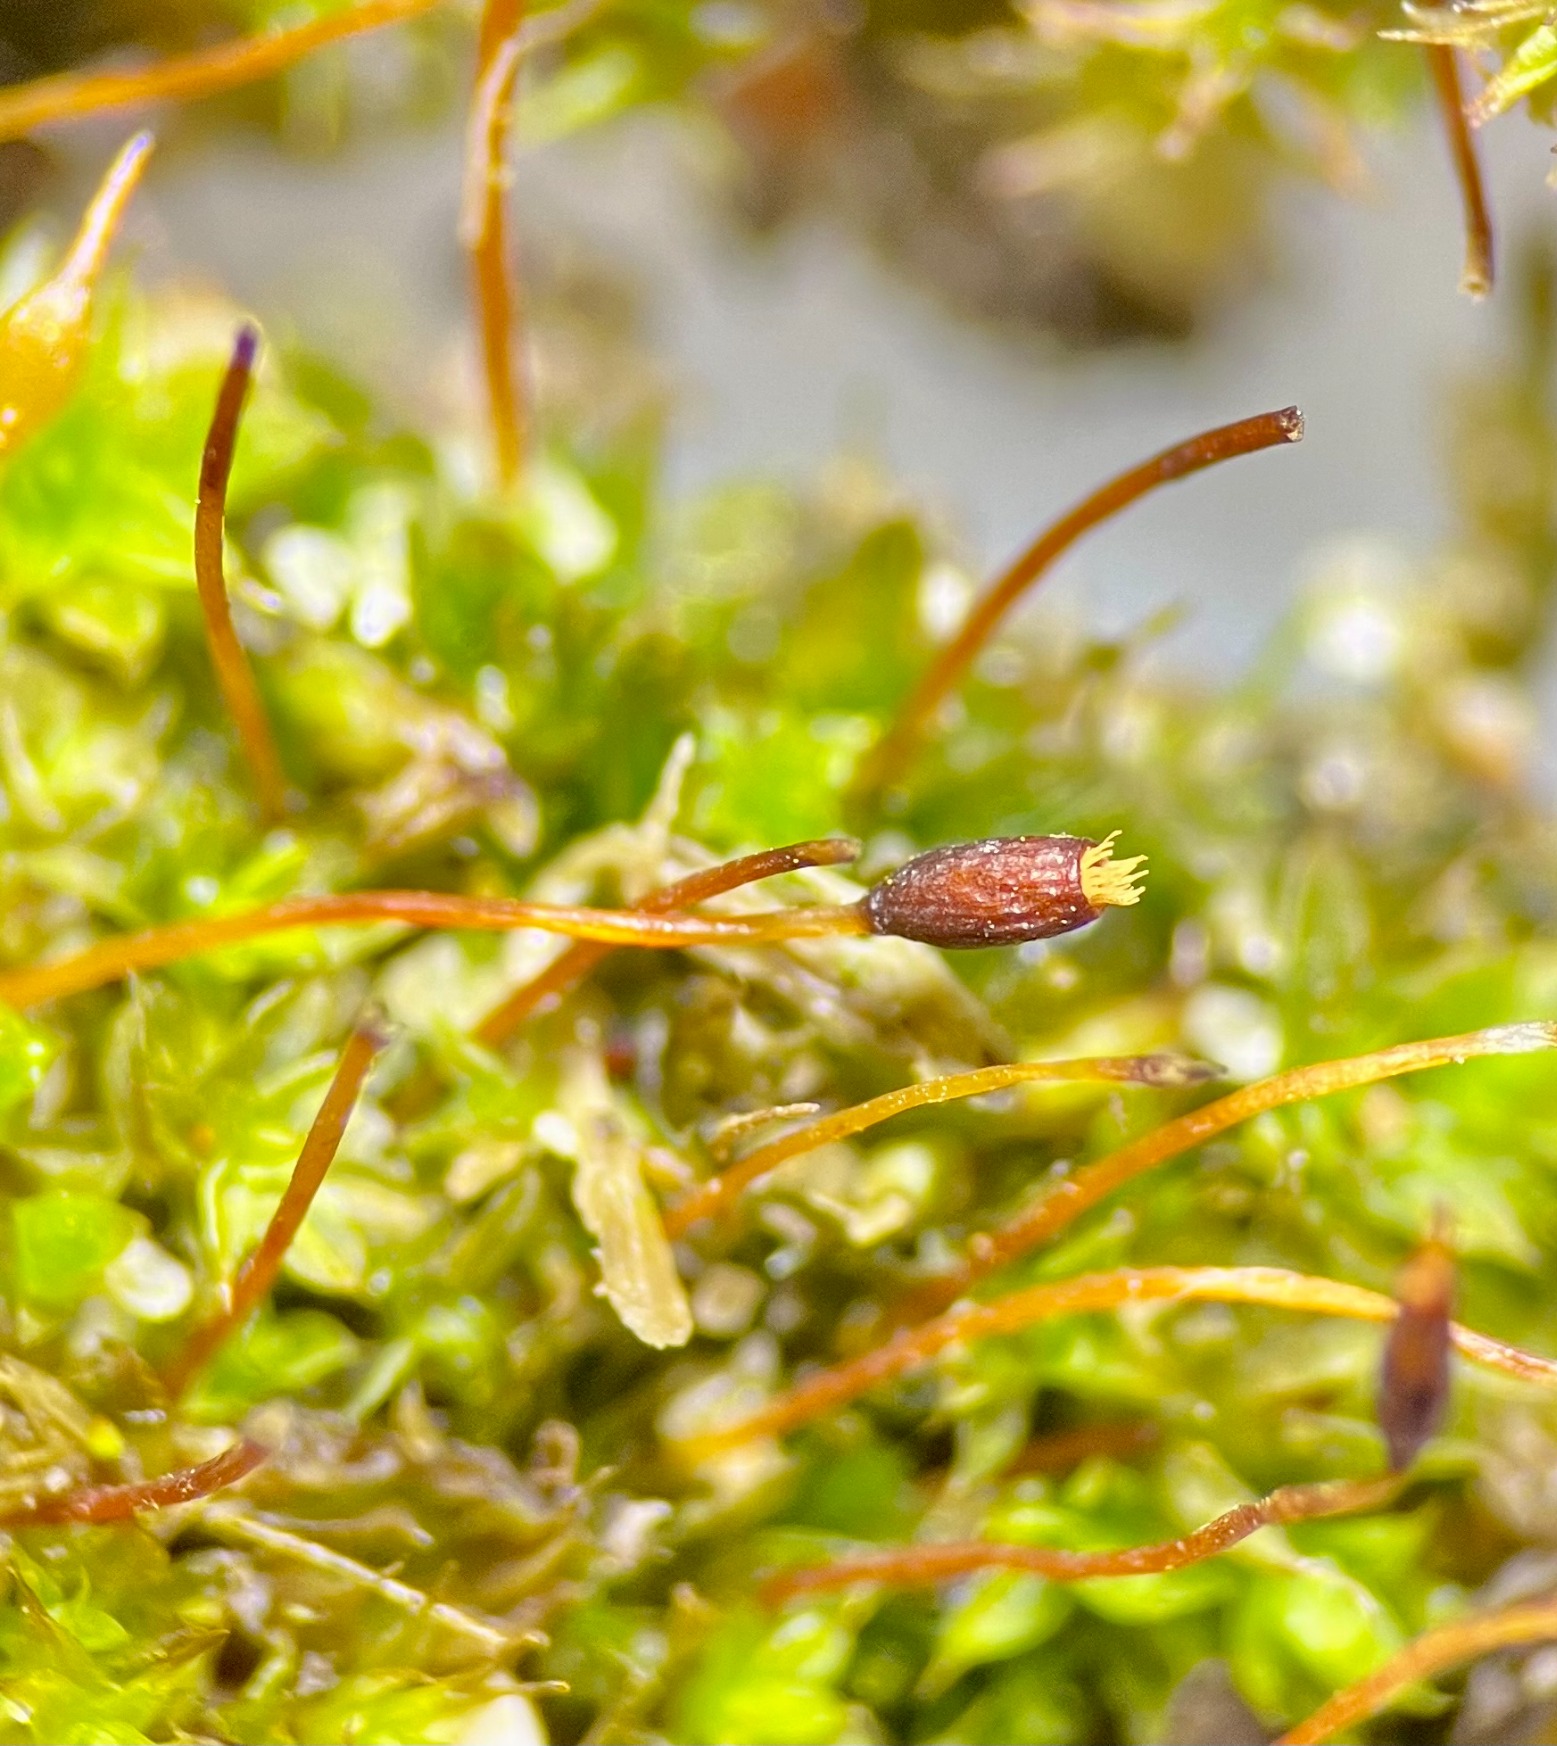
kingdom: Plantae
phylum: Bryophyta
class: Bryopsida
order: Pottiales
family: Pottiaceae
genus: Tortula
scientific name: Tortula lindbergii
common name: Lancet-bægermos
